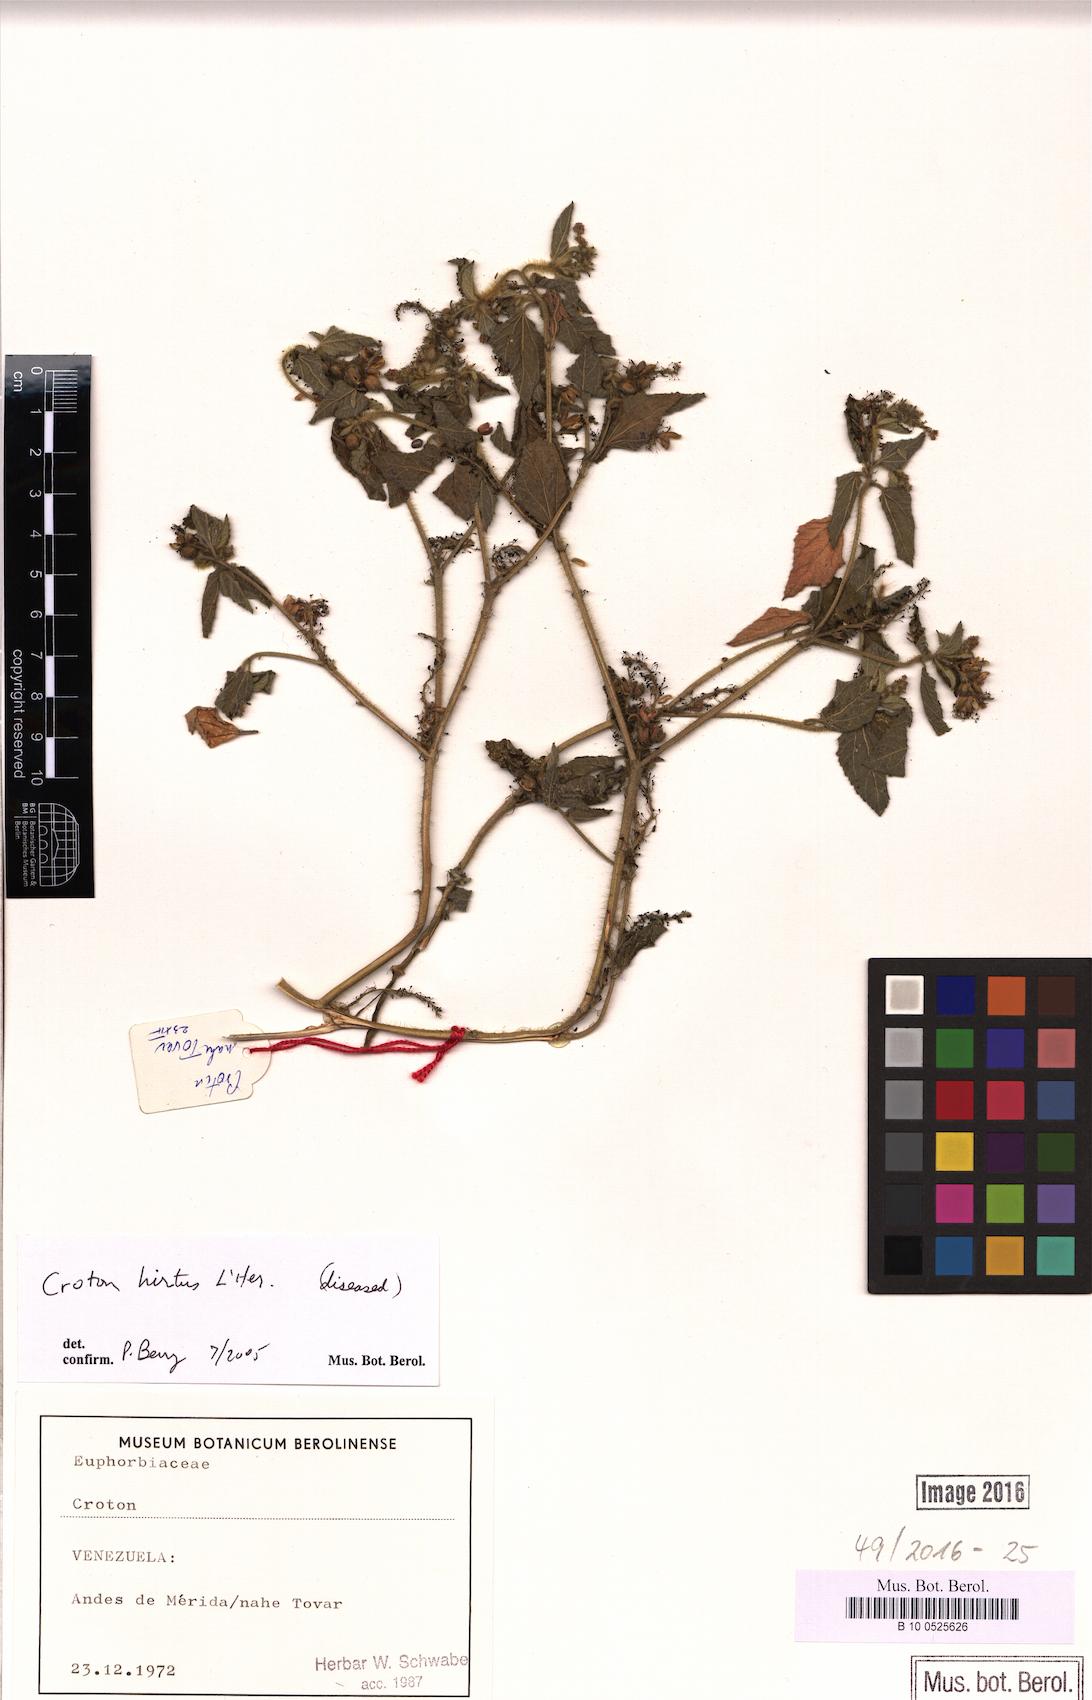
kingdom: Plantae
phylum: Tracheophyta
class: Magnoliopsida
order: Malpighiales
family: Euphorbiaceae
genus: Croton
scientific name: Croton hirtus
